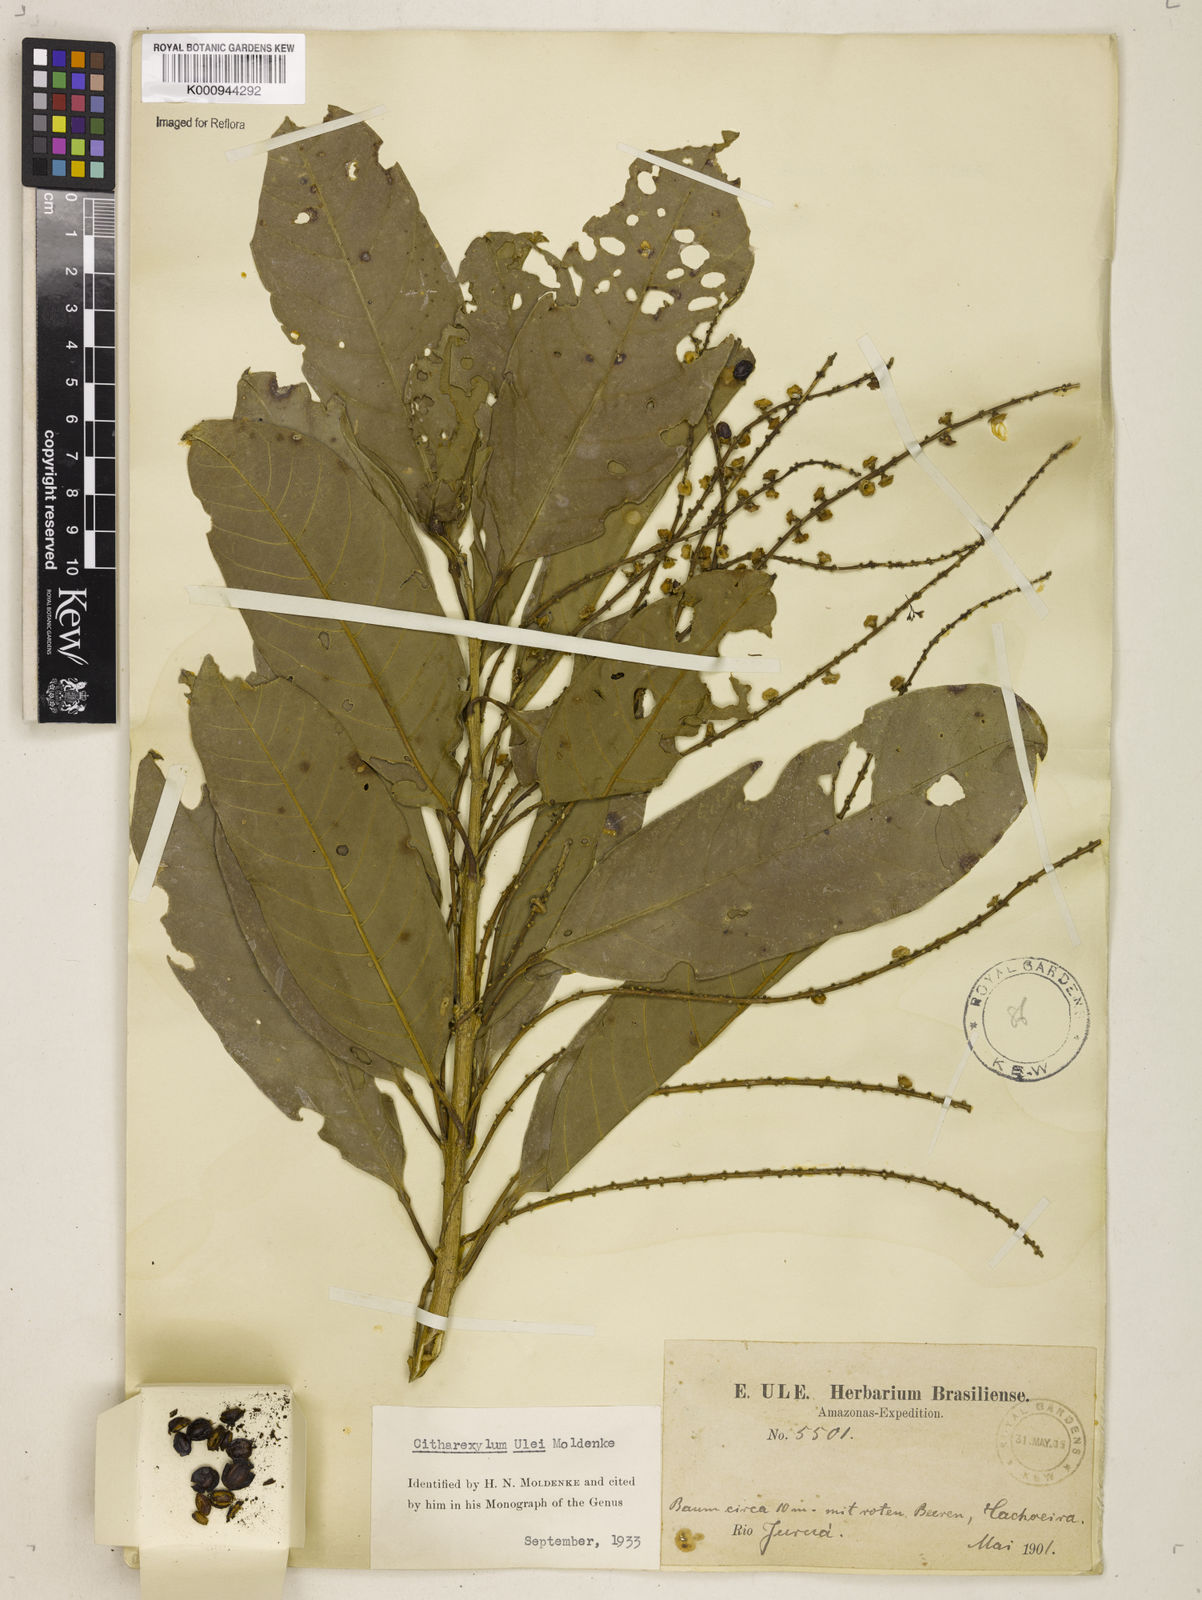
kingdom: Plantae
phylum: Tracheophyta
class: Magnoliopsida
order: Lamiales
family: Verbenaceae
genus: Citharexylum
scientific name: Citharexylum ulei
